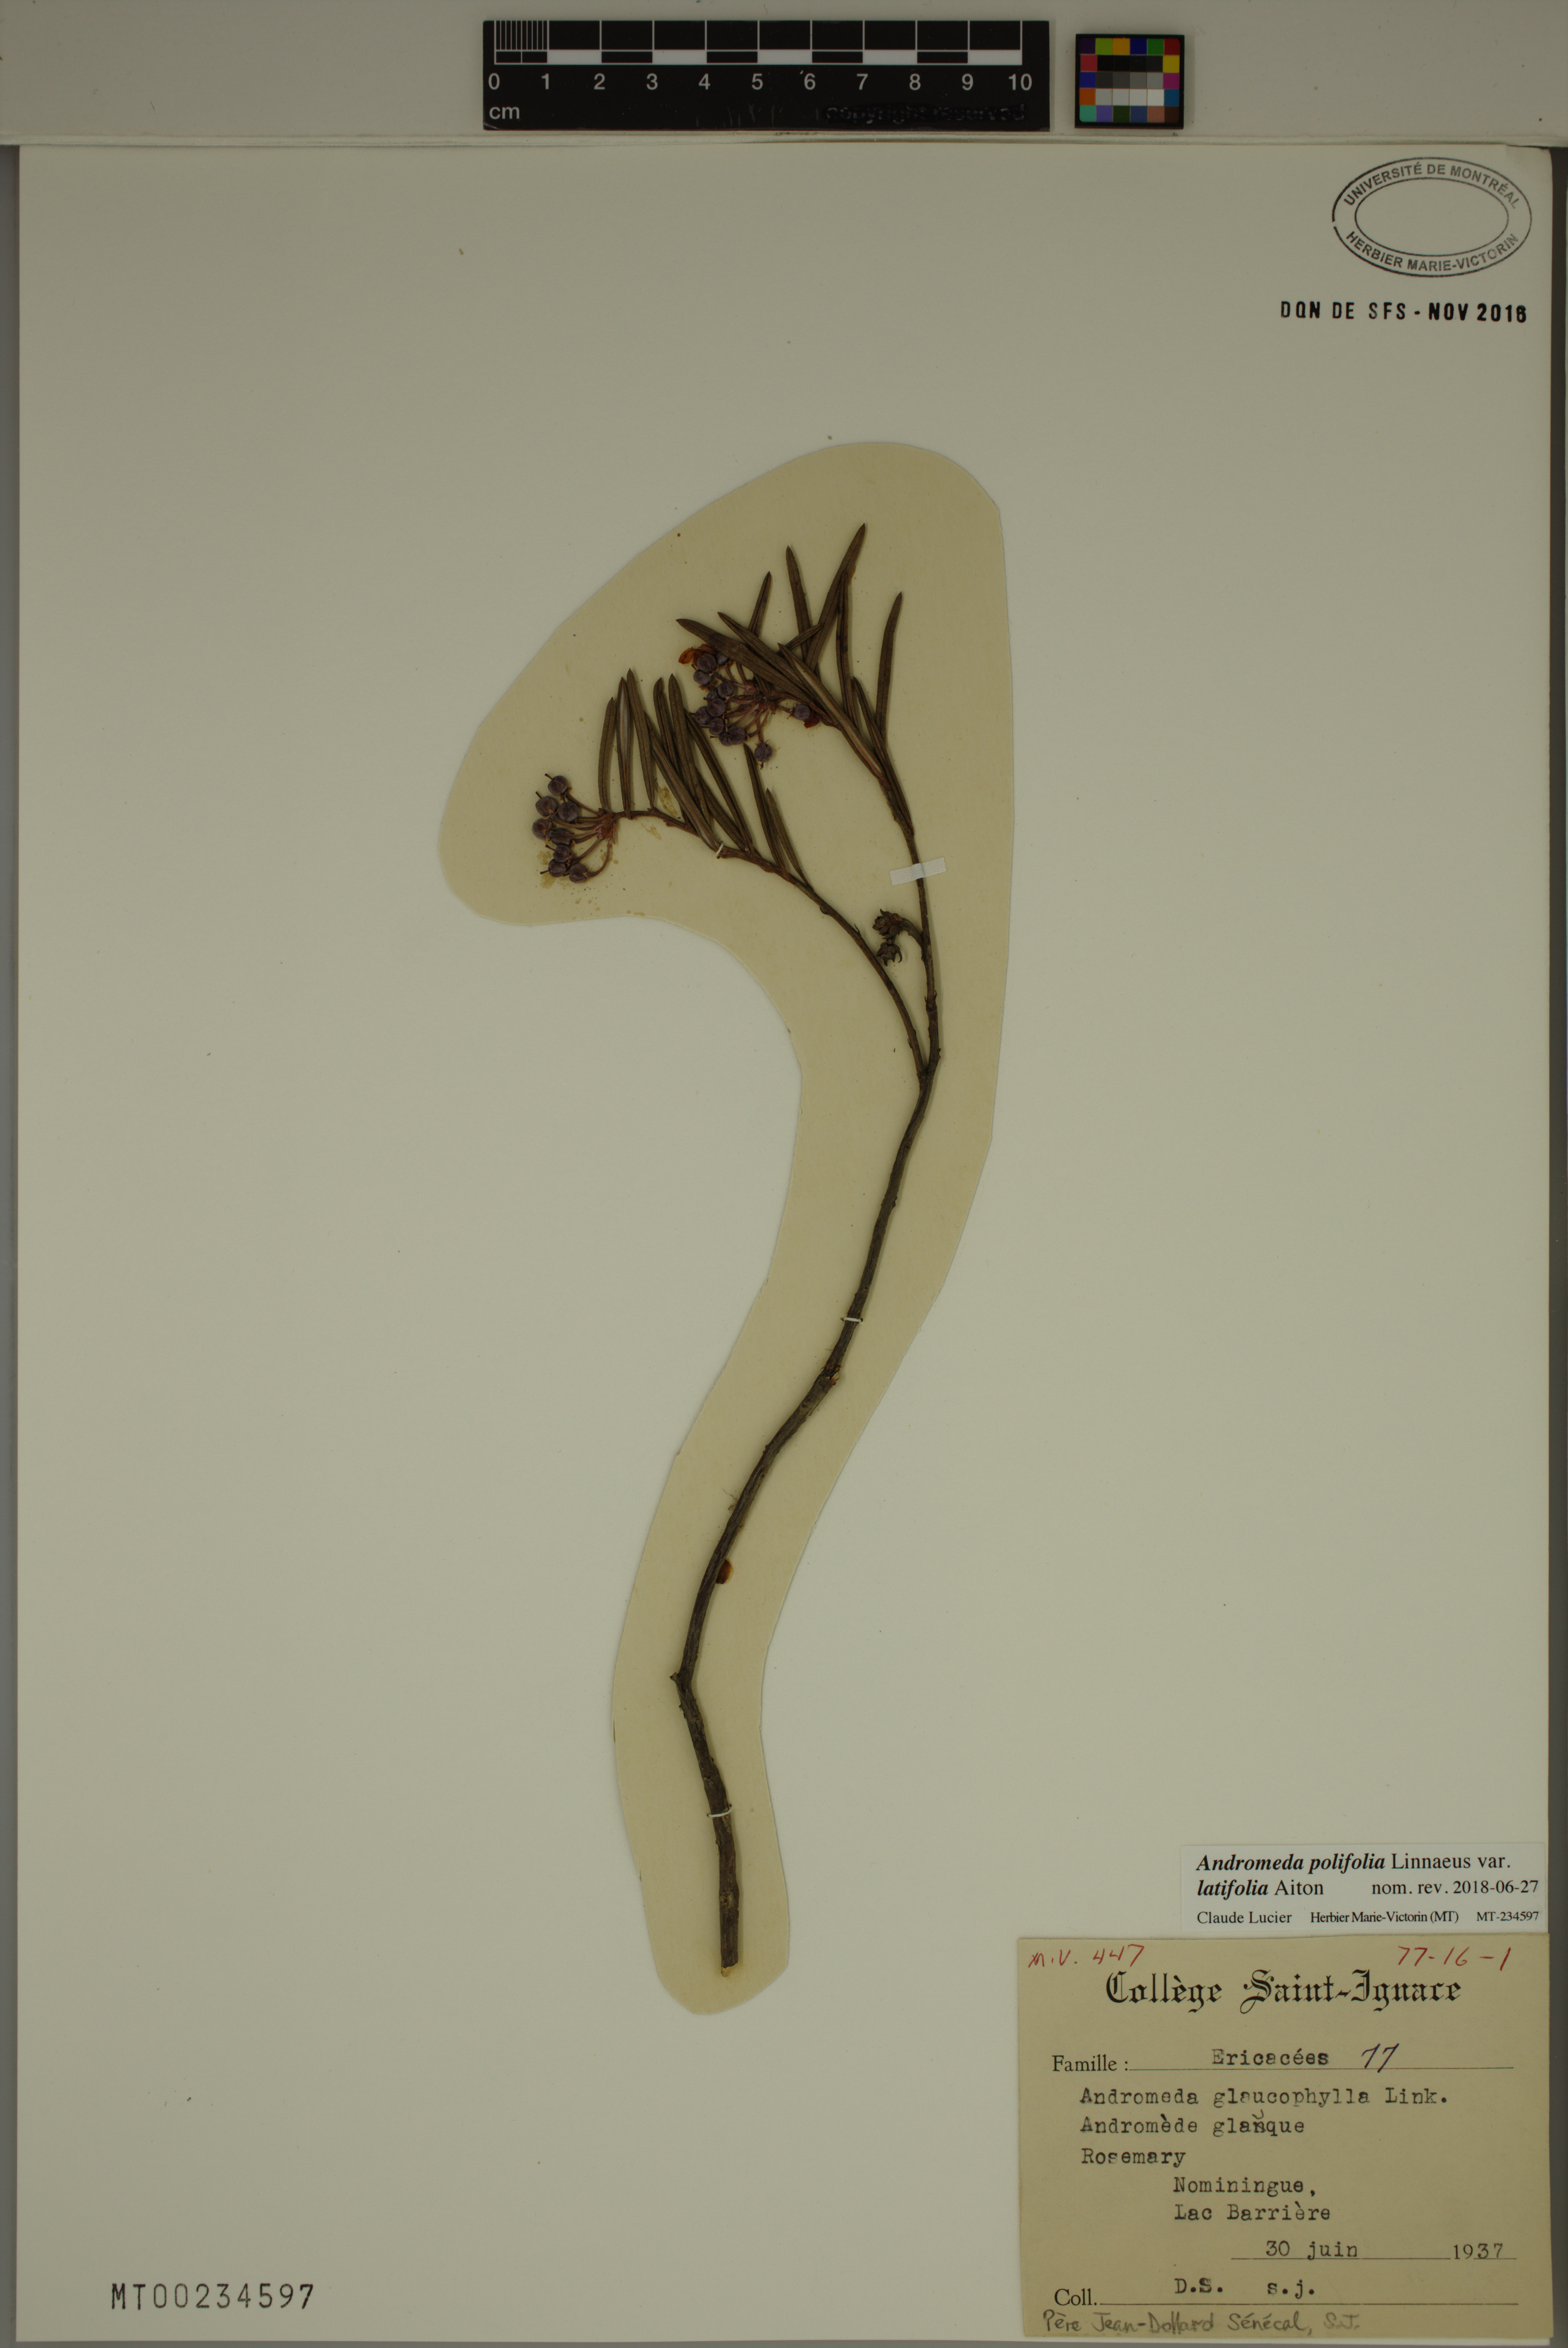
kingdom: Plantae
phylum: Tracheophyta
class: Magnoliopsida
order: Ericales
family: Ericaceae
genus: Andromeda
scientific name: Andromeda polifolia
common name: Bog-rosemary
